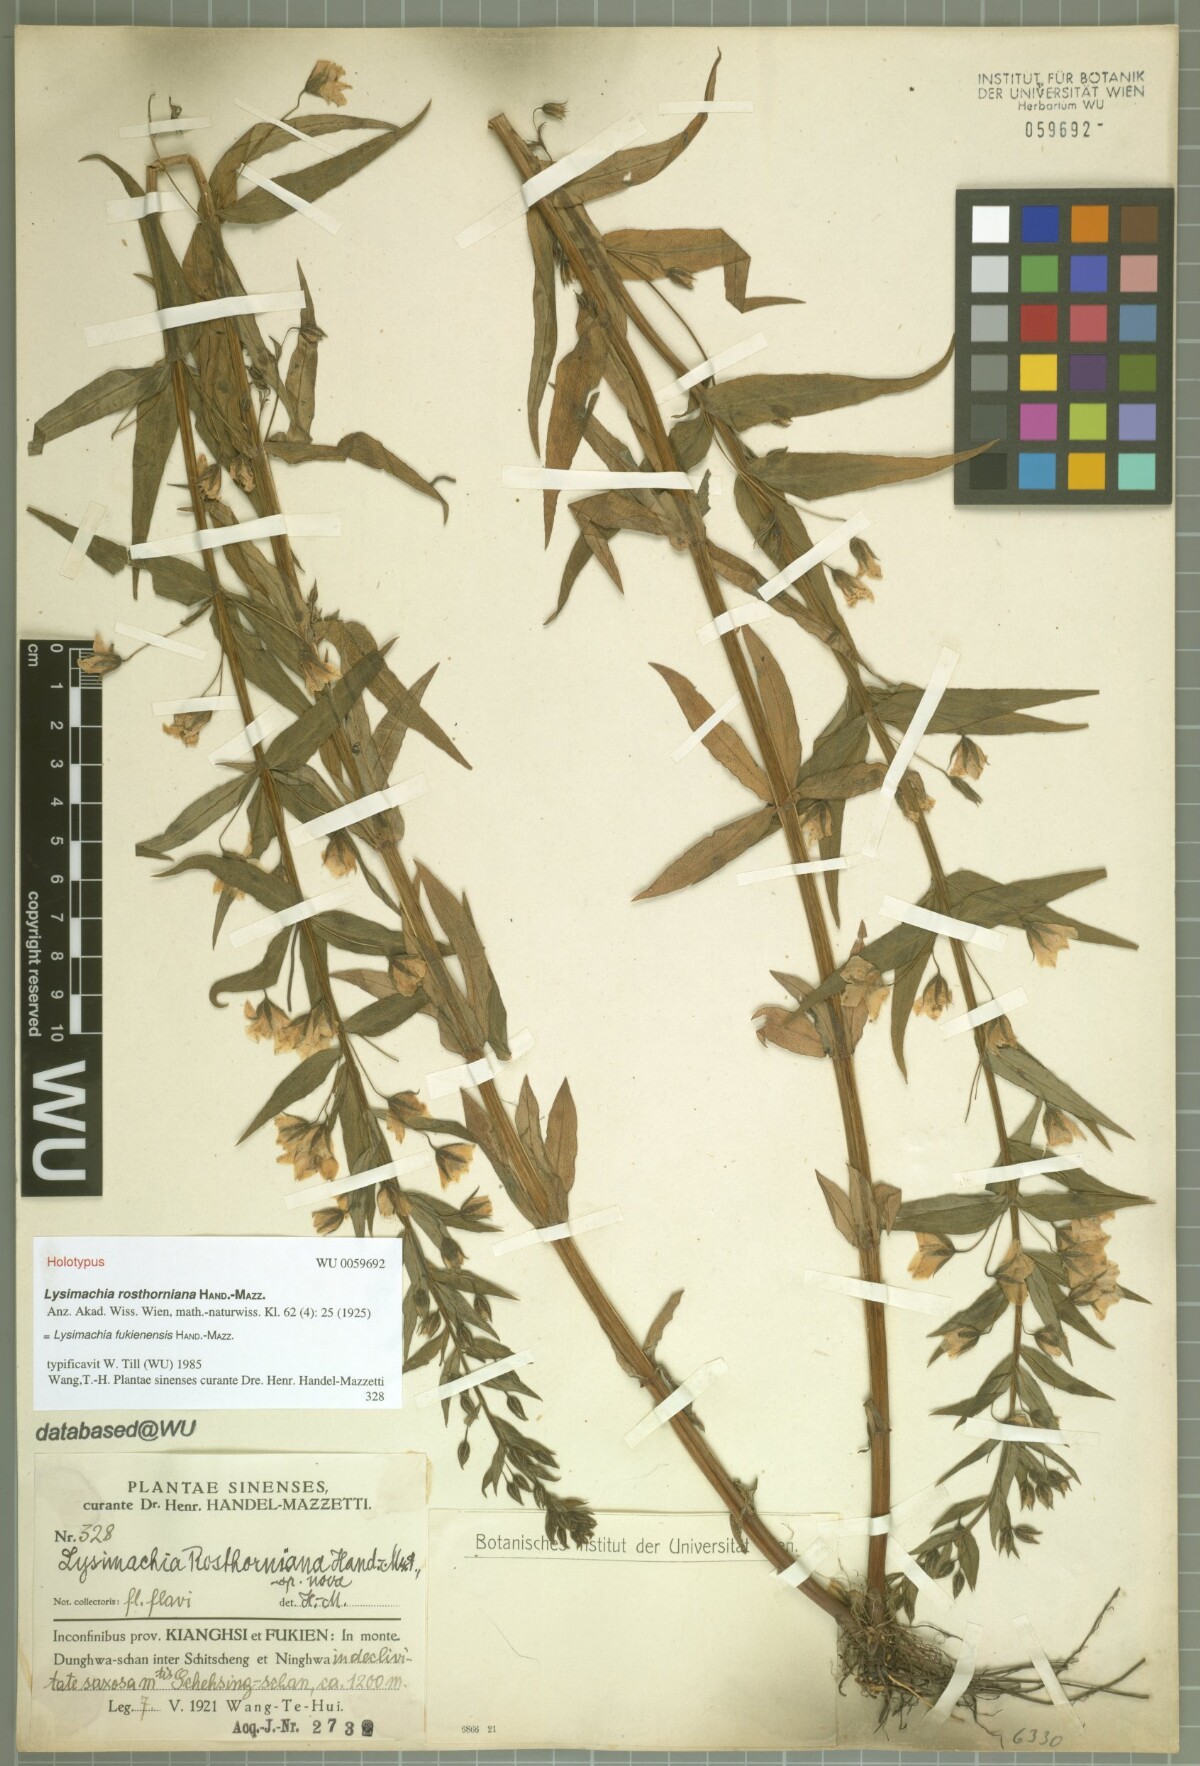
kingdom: Plantae
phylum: Tracheophyta
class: Magnoliopsida
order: Ericales
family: Primulaceae
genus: Lysimachia
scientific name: Lysimachia fukienensis
